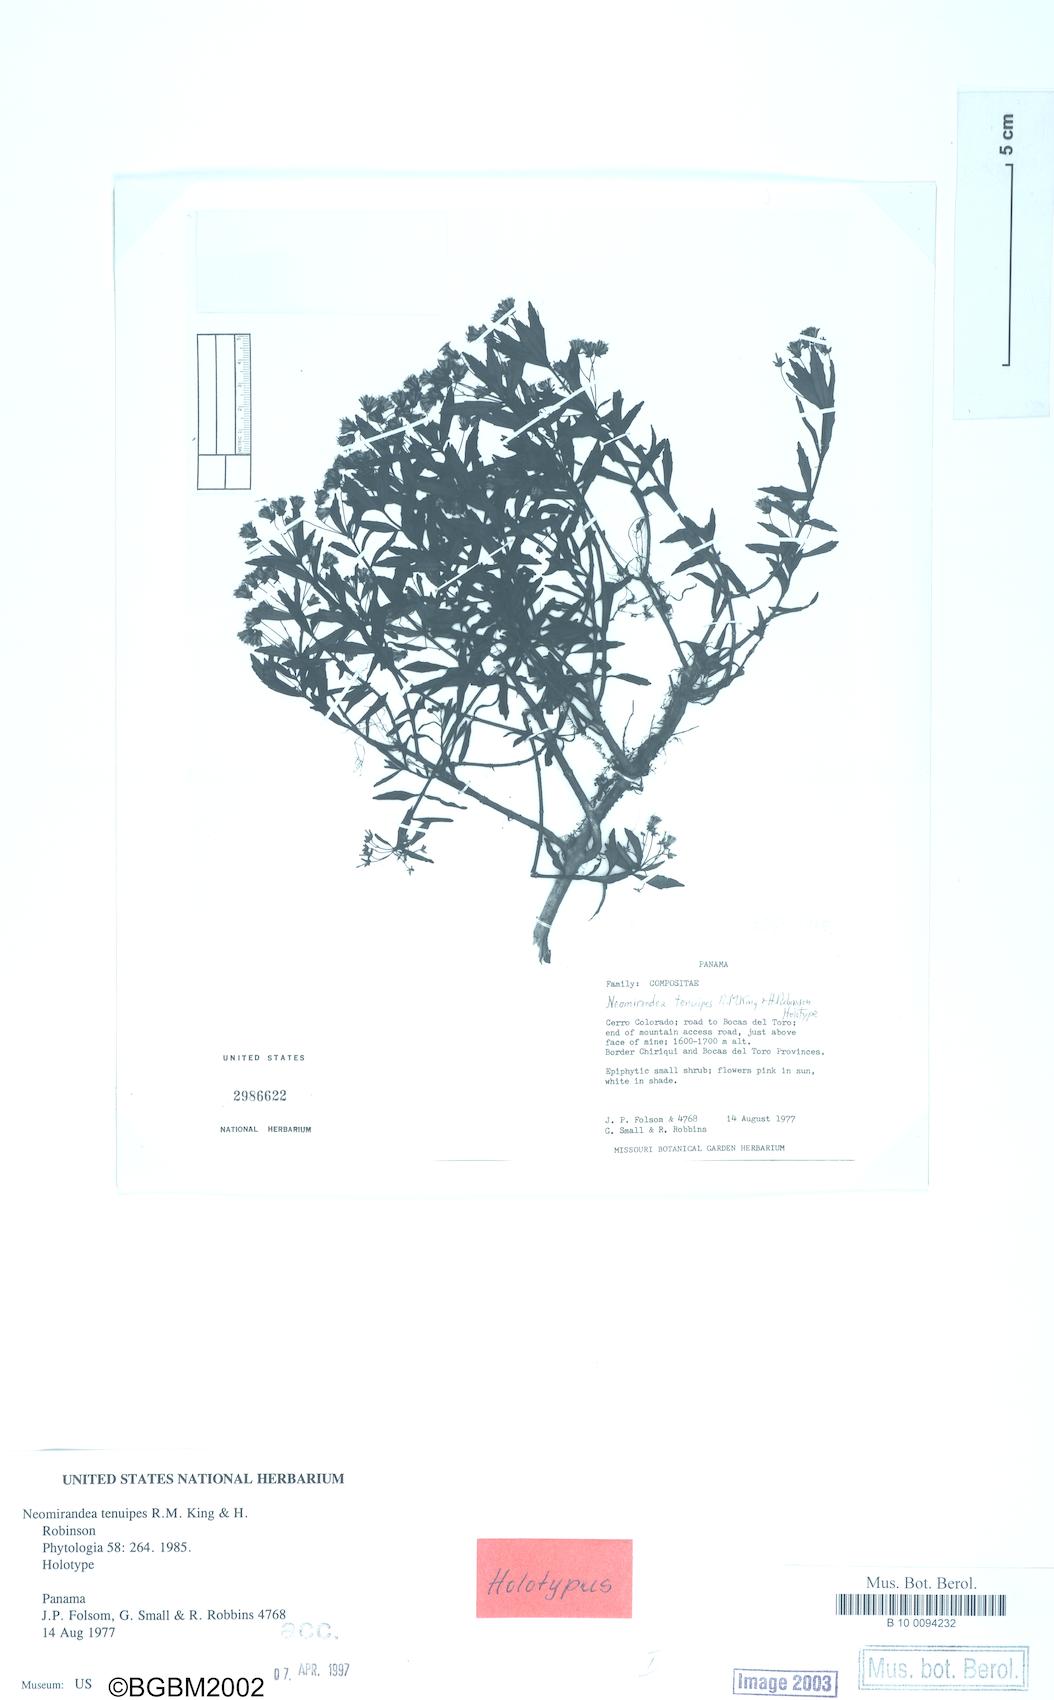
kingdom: Plantae
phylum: Tracheophyta
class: Magnoliopsida
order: Asterales
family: Asteraceae
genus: Neomirandea
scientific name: Neomirandea tenuipes
